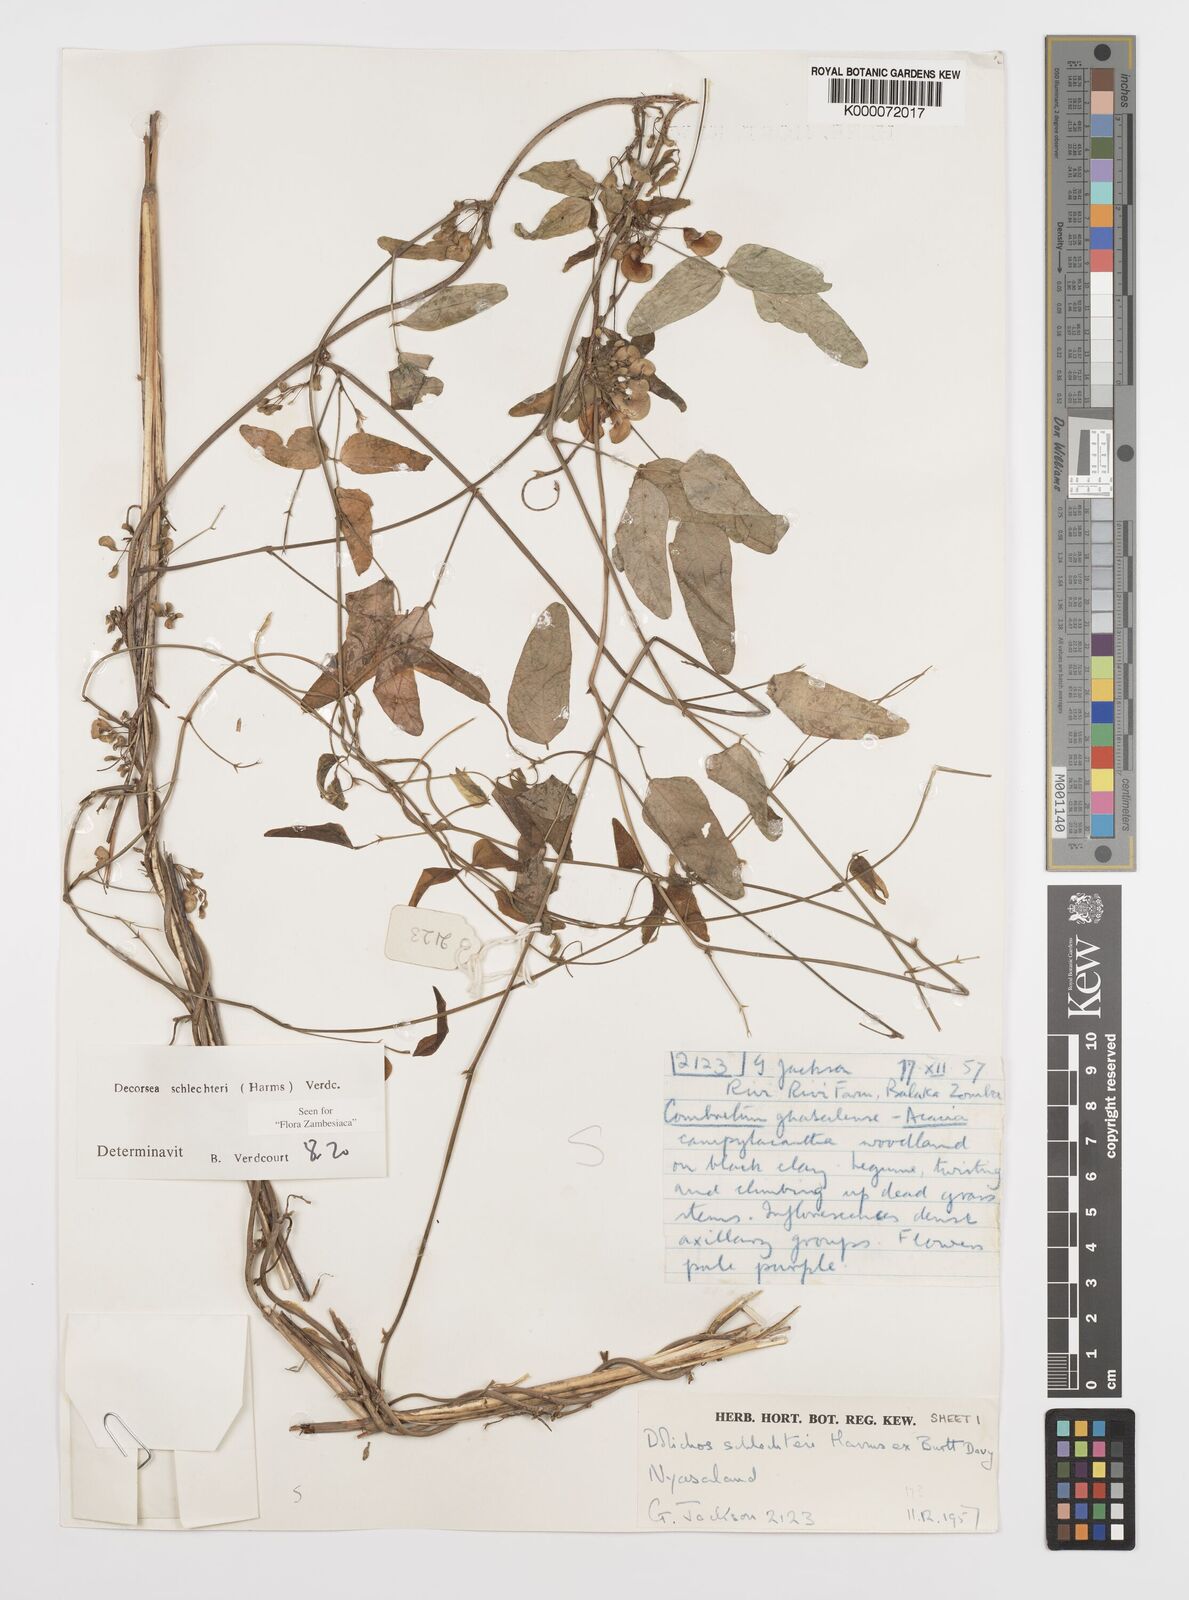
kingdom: Plantae
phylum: Tracheophyta
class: Magnoliopsida
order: Fabales
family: Fabaceae
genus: Decorsea
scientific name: Decorsea schlechteri
